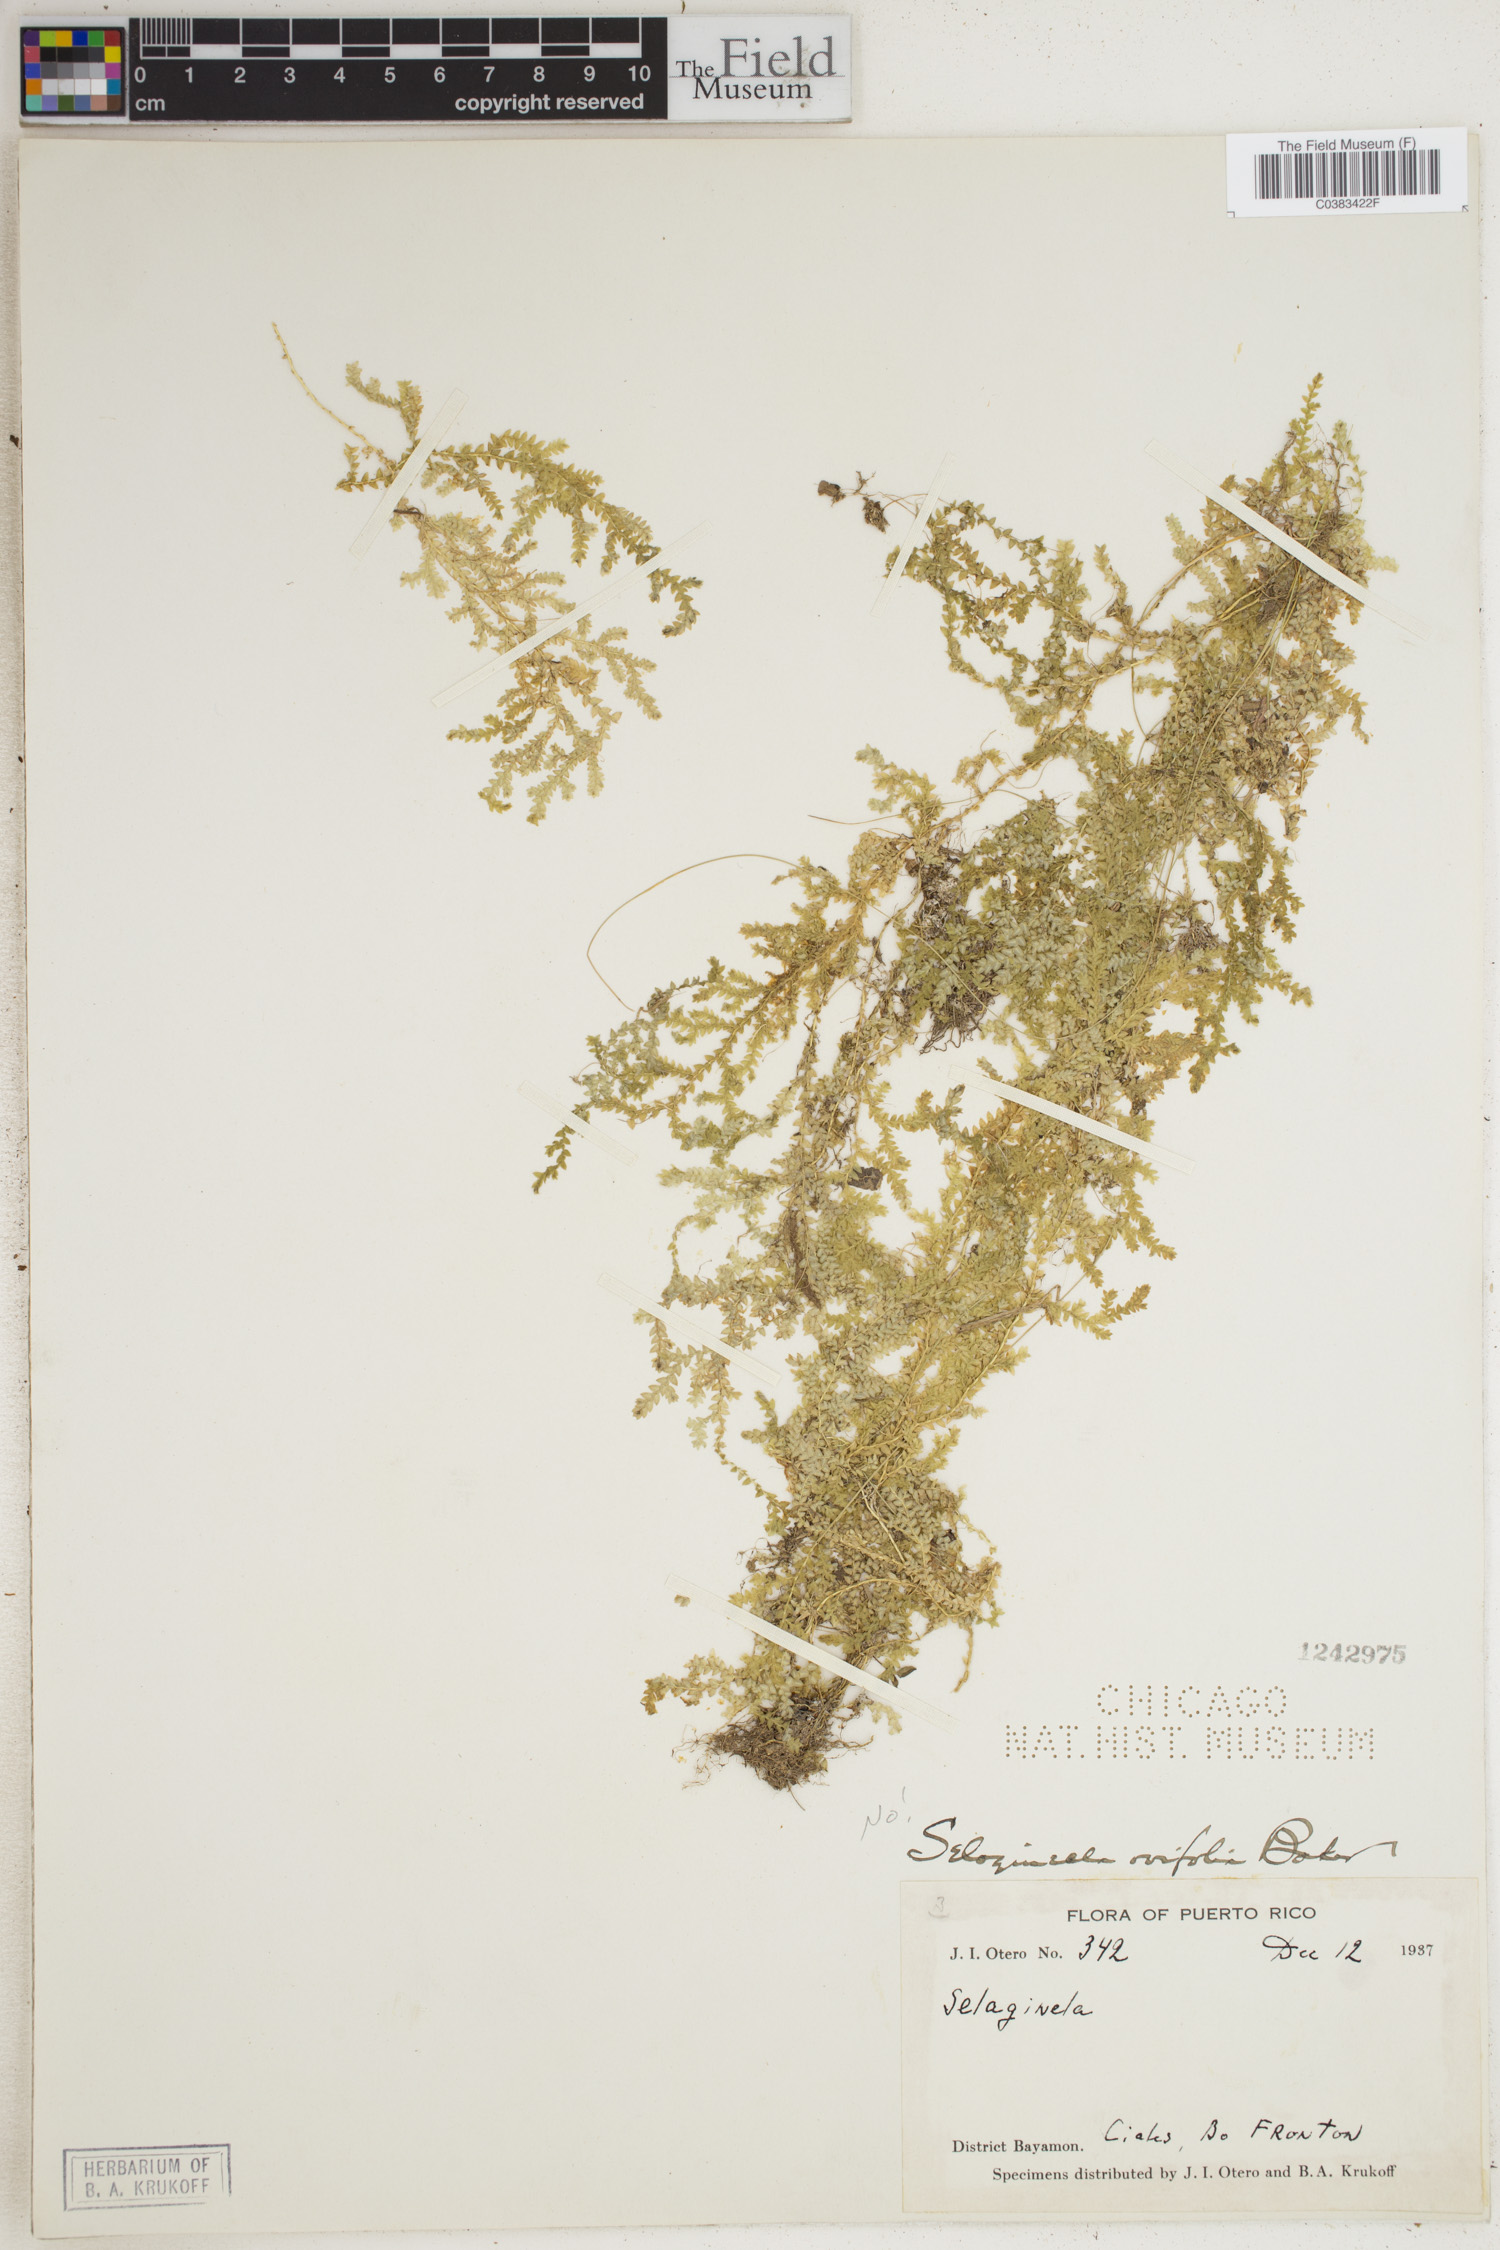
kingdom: Plantae
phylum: Tracheophyta
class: Lycopodiopsida
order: Selaginellales
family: Selaginellaceae
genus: Selaginella
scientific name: Selaginella ovifolia
